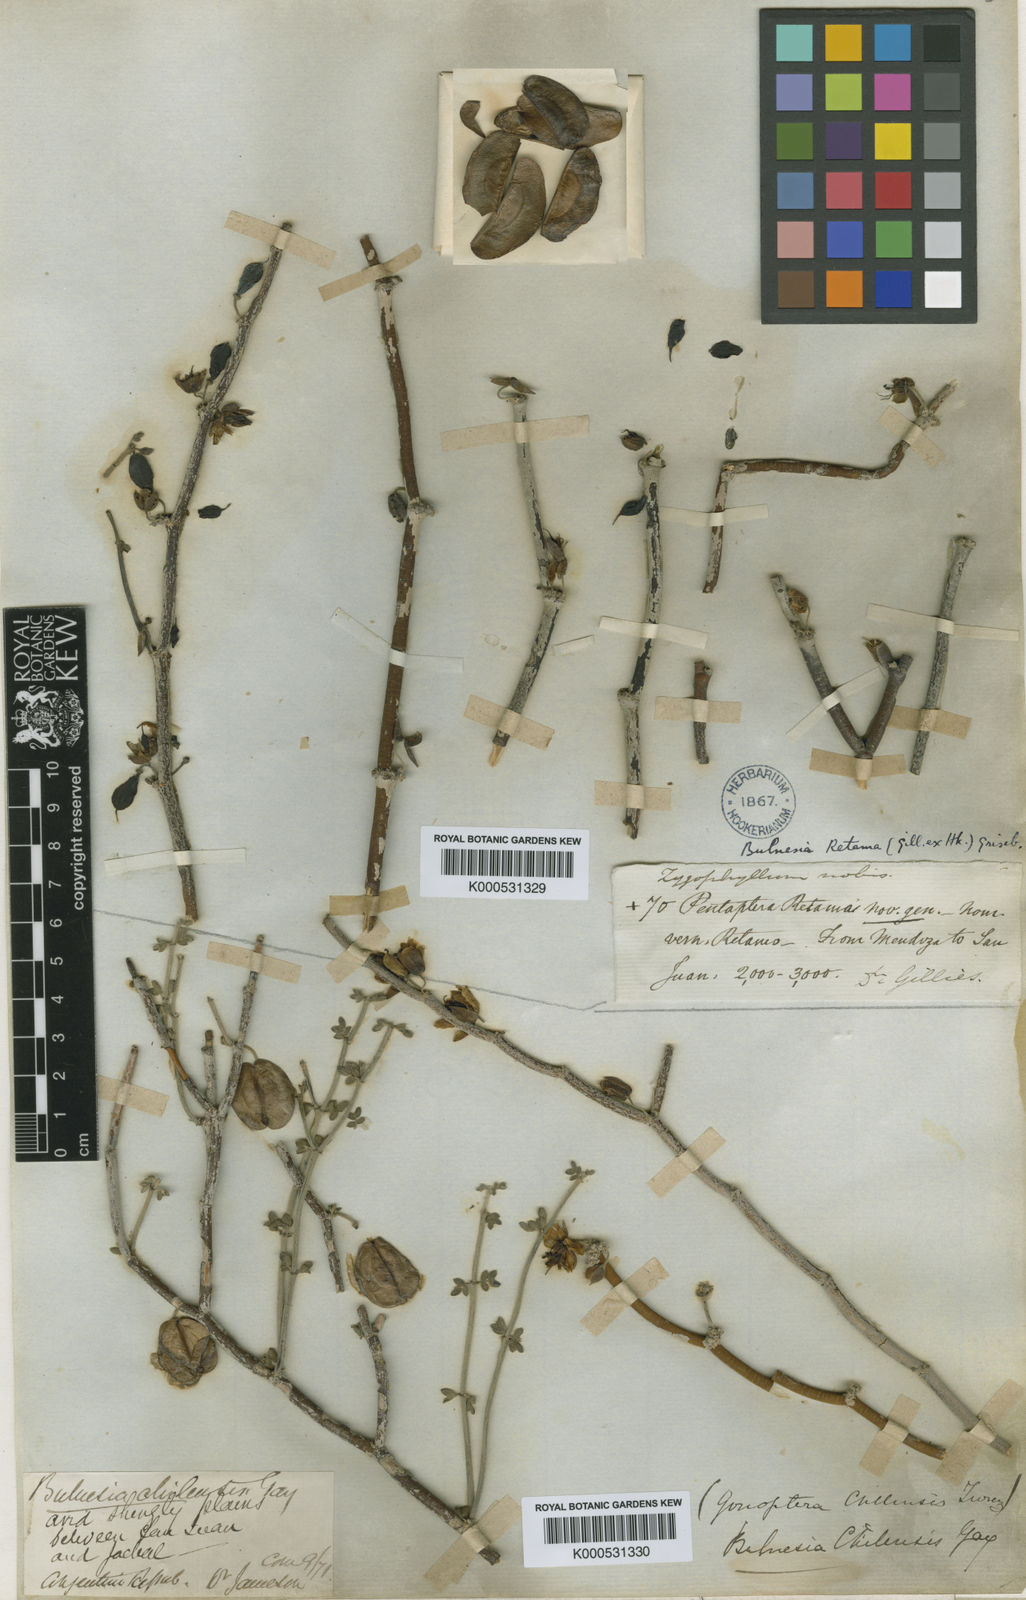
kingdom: Plantae
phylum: Tracheophyta
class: Magnoliopsida
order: Zygophyllales
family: Zygophyllaceae
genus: Bulnesia
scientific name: Bulnesia retama
